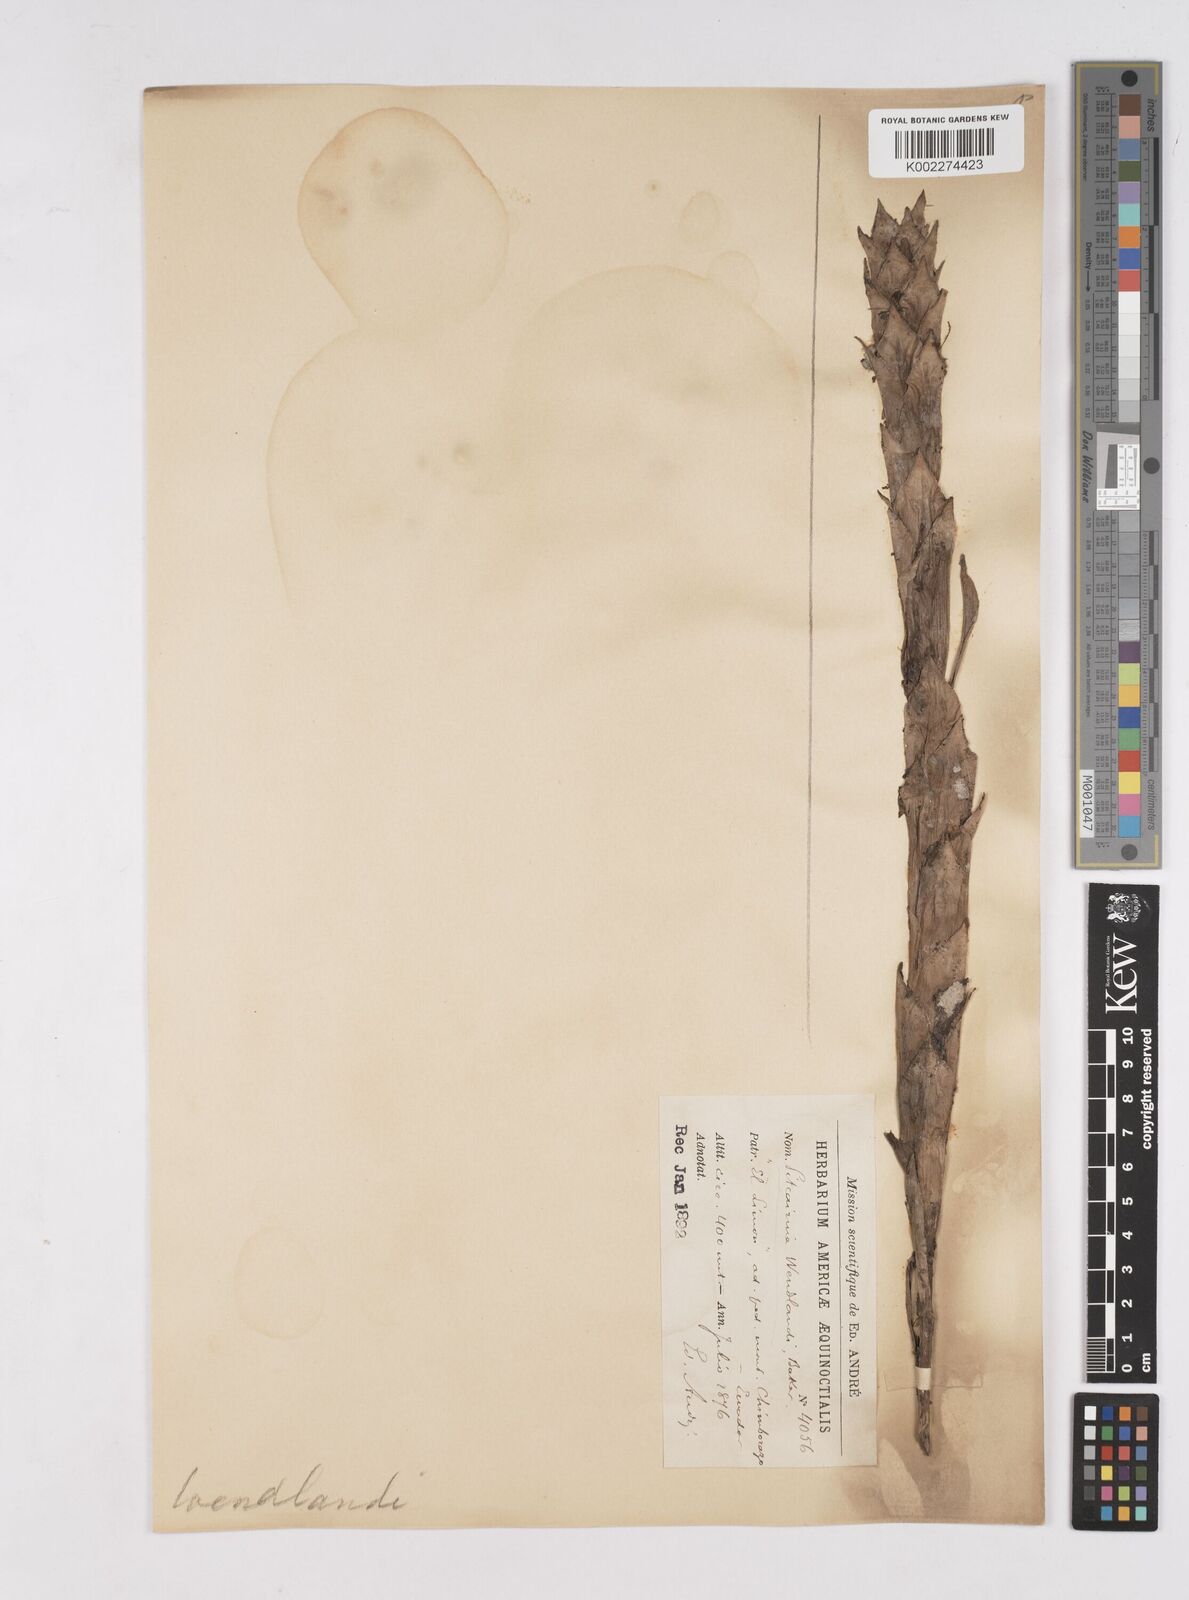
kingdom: Plantae
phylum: Tracheophyta
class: Liliopsida
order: Poales
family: Bromeliaceae
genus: Pitcairnia
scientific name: Pitcairnia wendlandii
